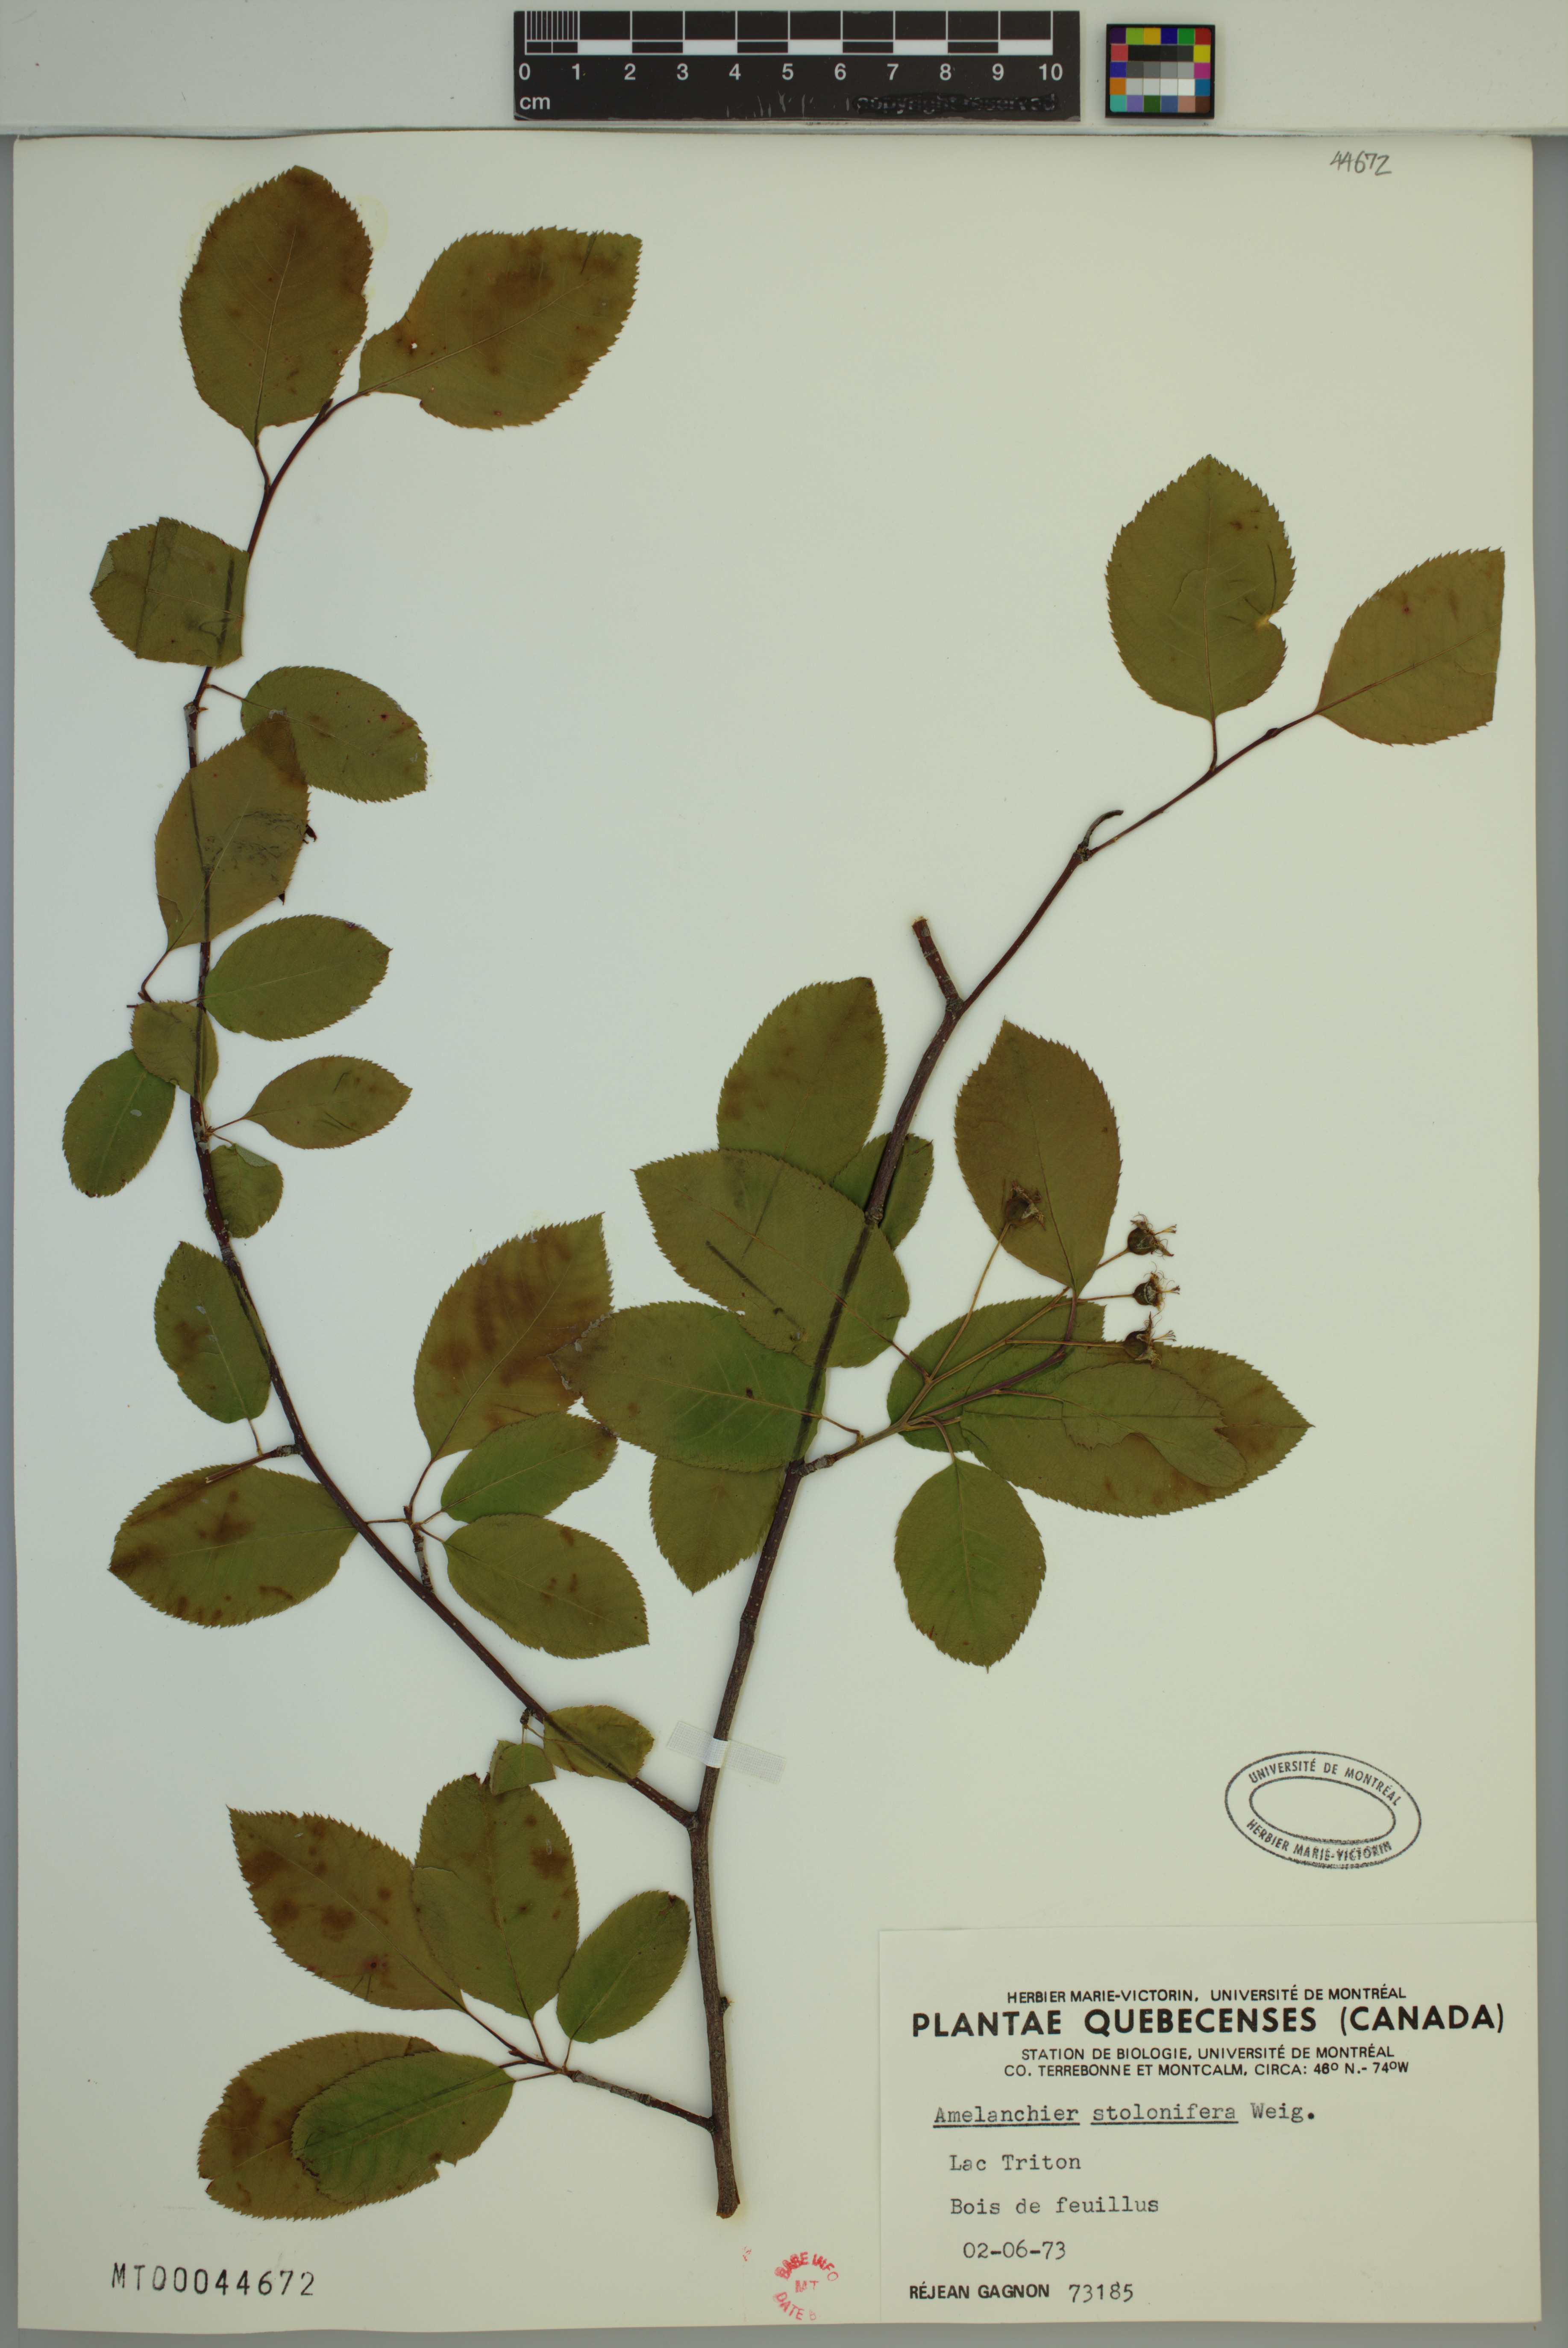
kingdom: Plantae
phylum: Tracheophyta
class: Magnoliopsida
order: Rosales
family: Rosaceae
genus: Amelanchier
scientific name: Amelanchier humilis
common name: Low juneberry
